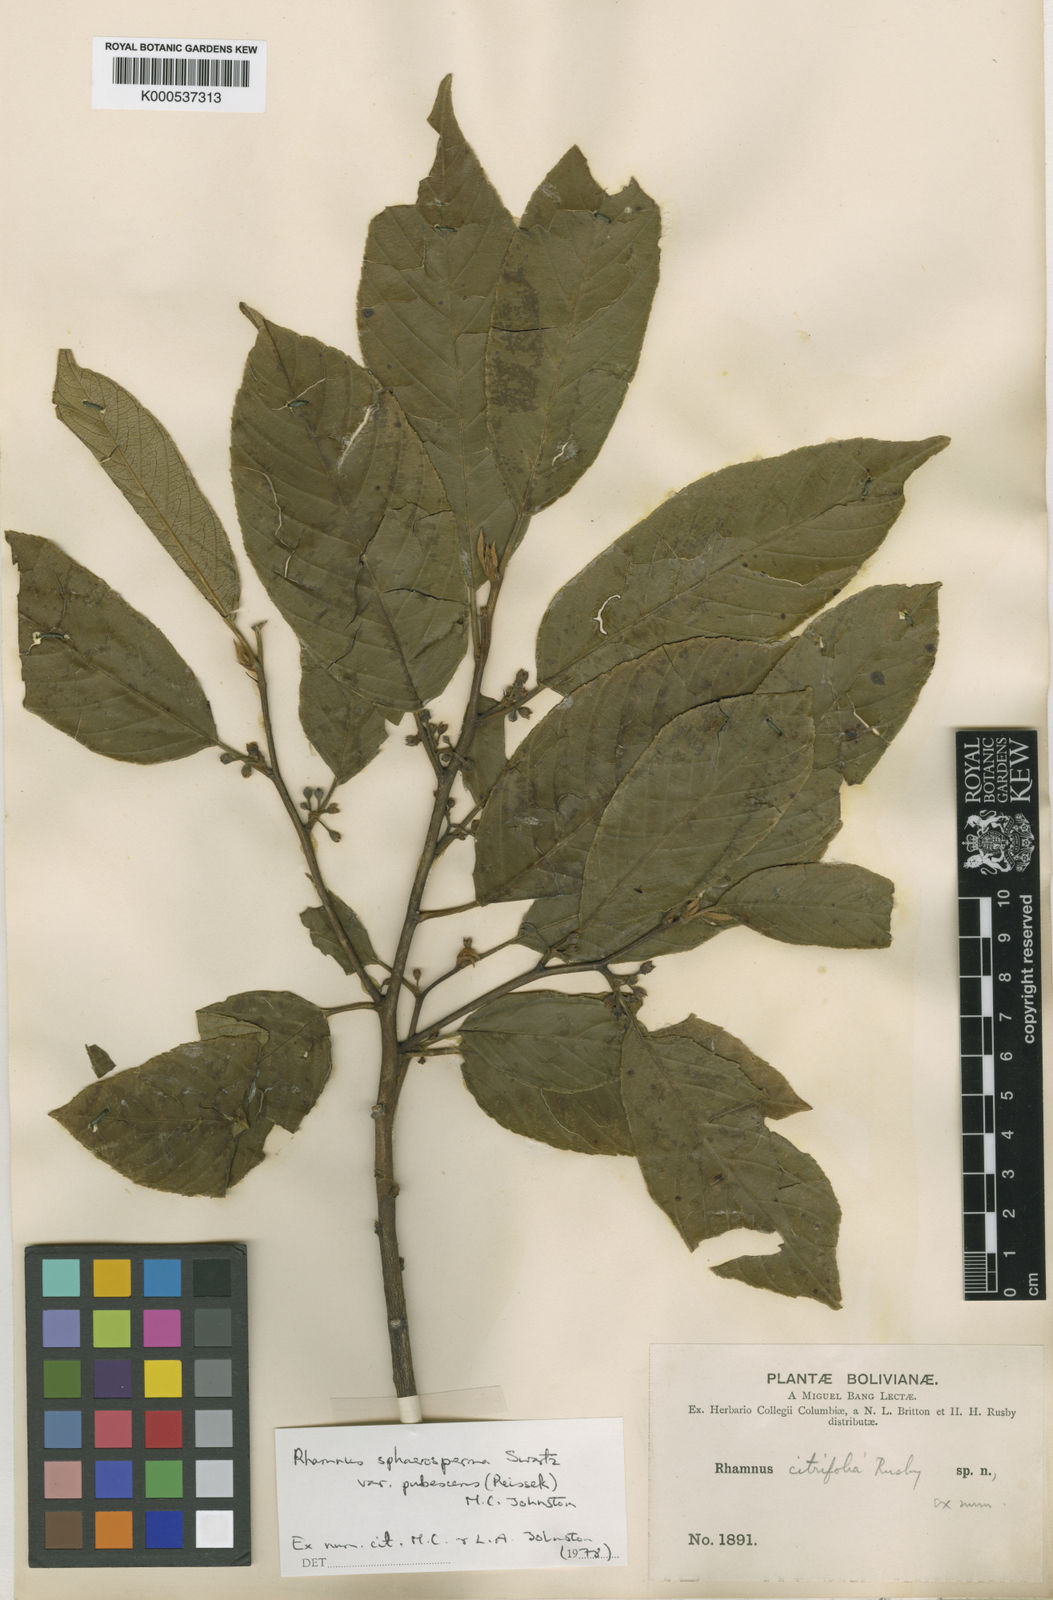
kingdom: Plantae
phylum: Tracheophyta
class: Magnoliopsida
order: Rosales
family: Rhamnaceae
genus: Frangula
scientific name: Frangula
